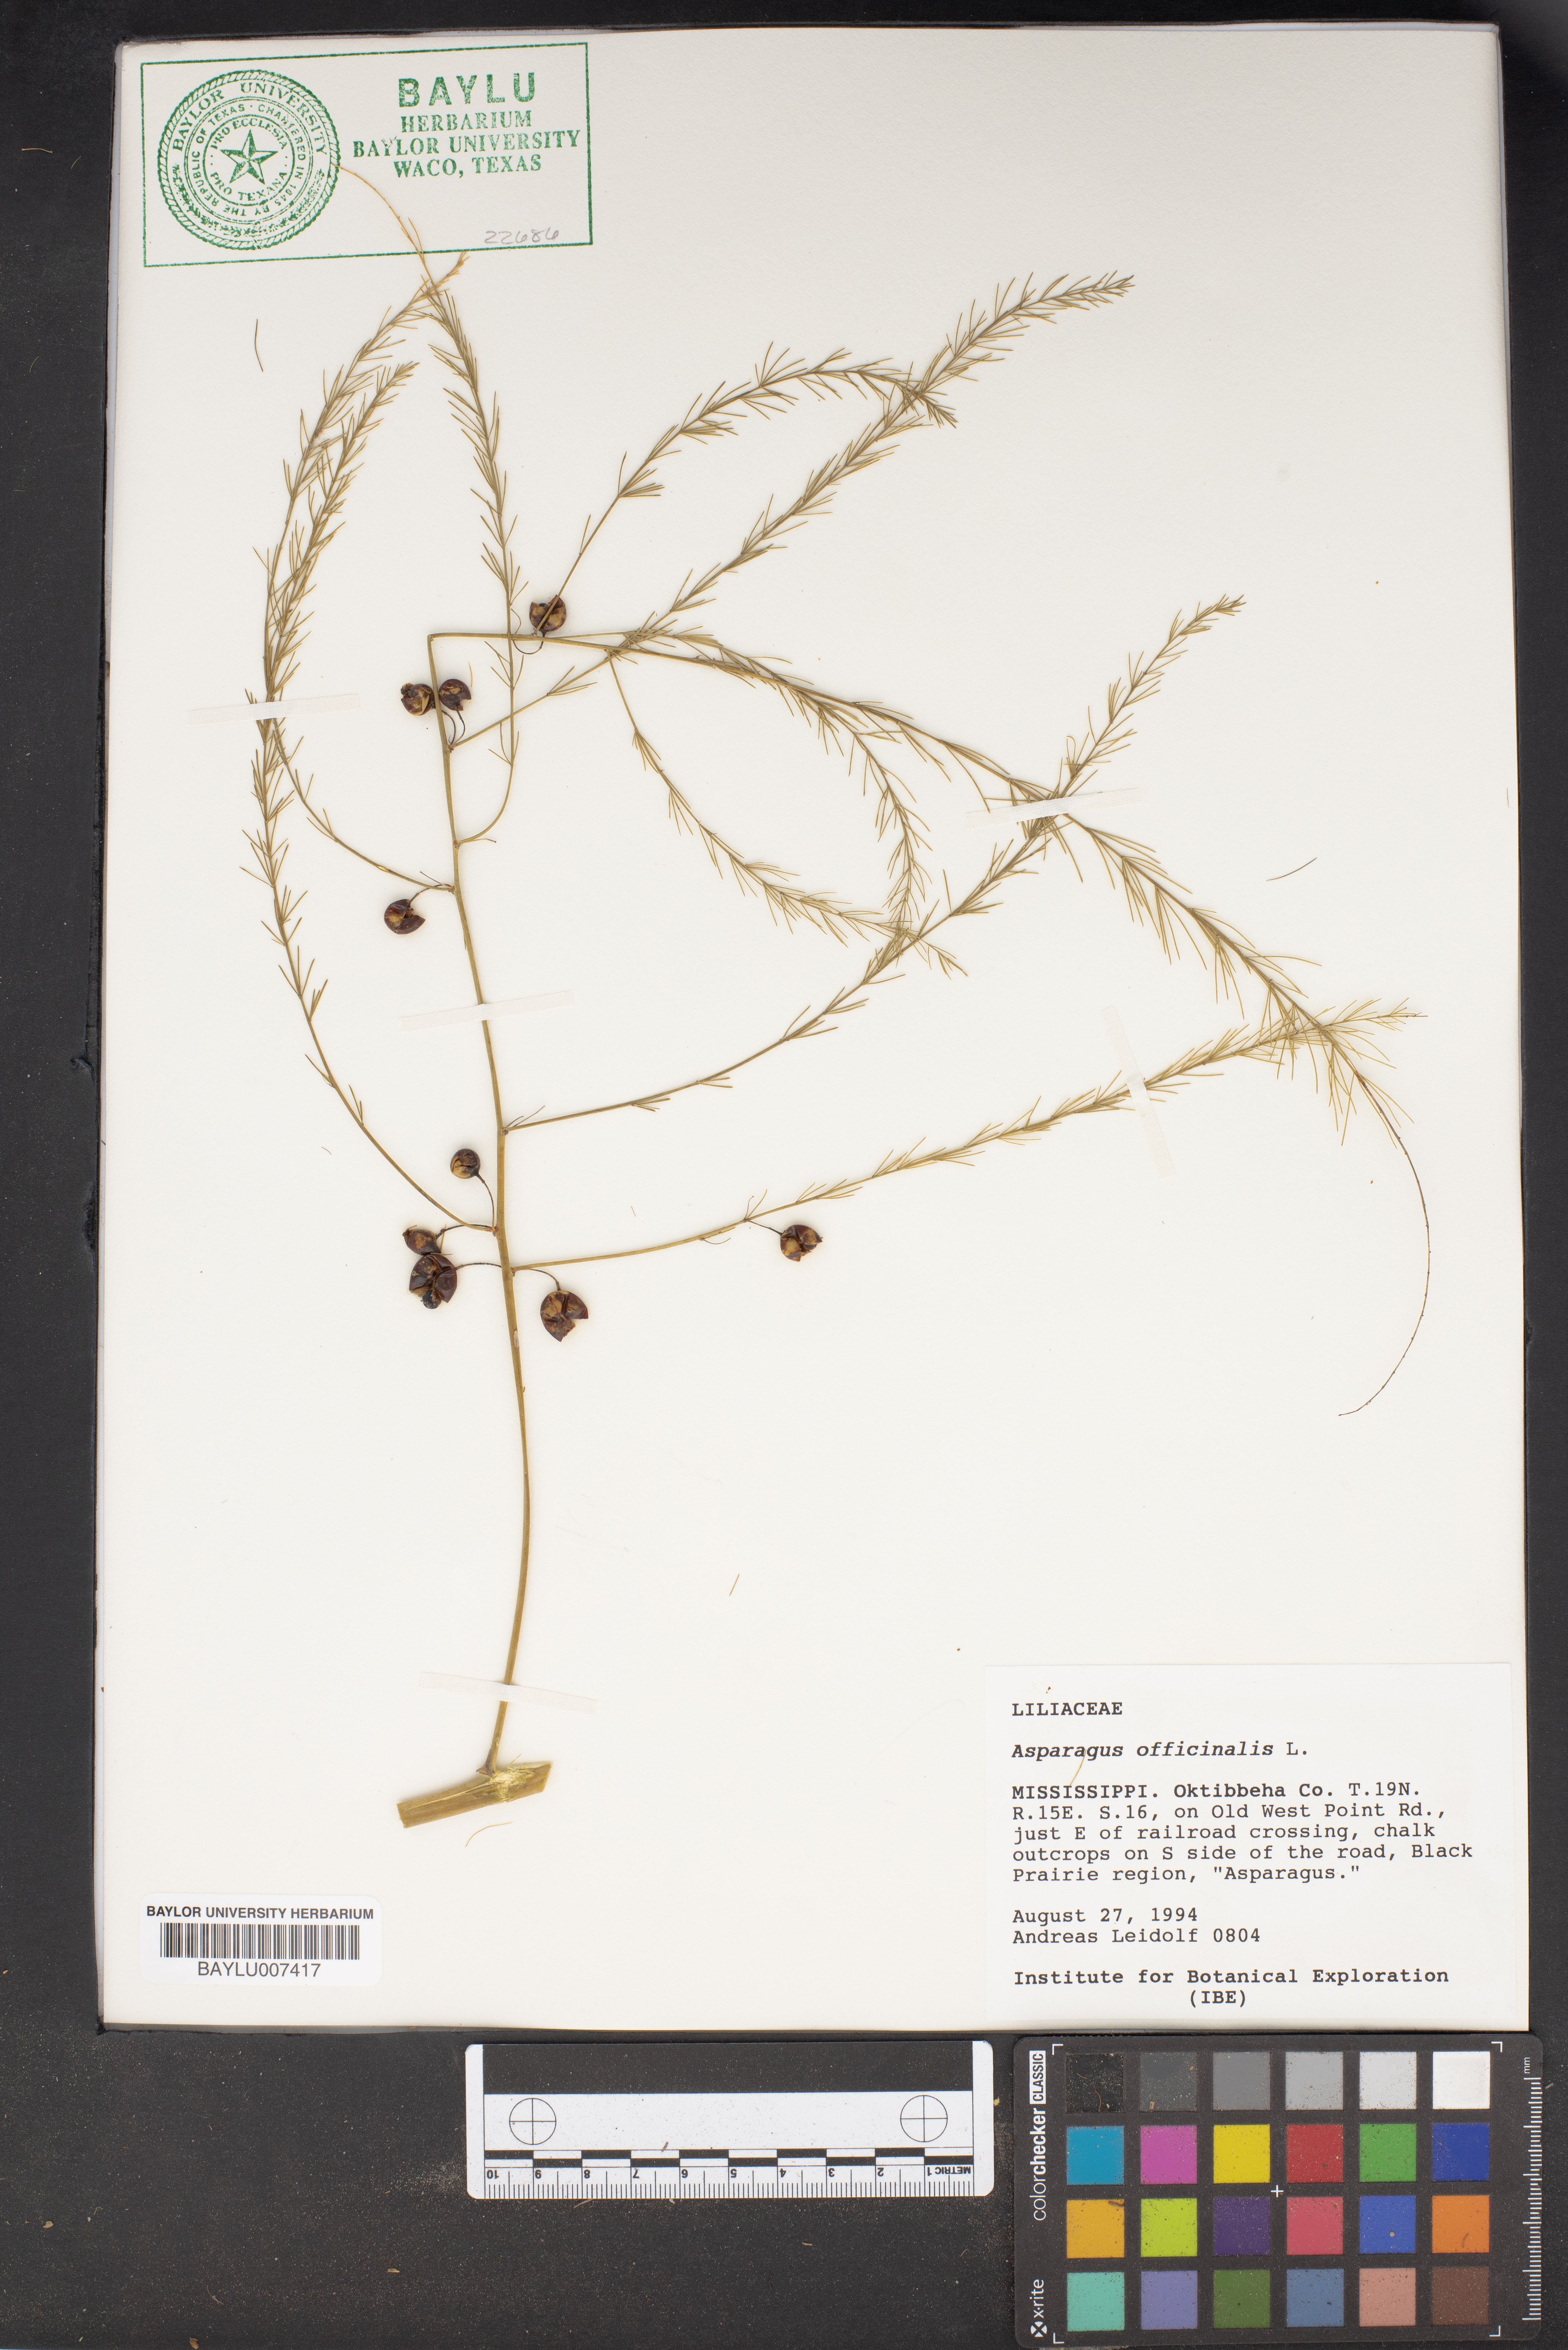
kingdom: Plantae
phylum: Tracheophyta
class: Liliopsida
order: Asparagales
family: Asparagaceae
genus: Asparagus
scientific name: Asparagus officinalis
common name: Garden asparagus
